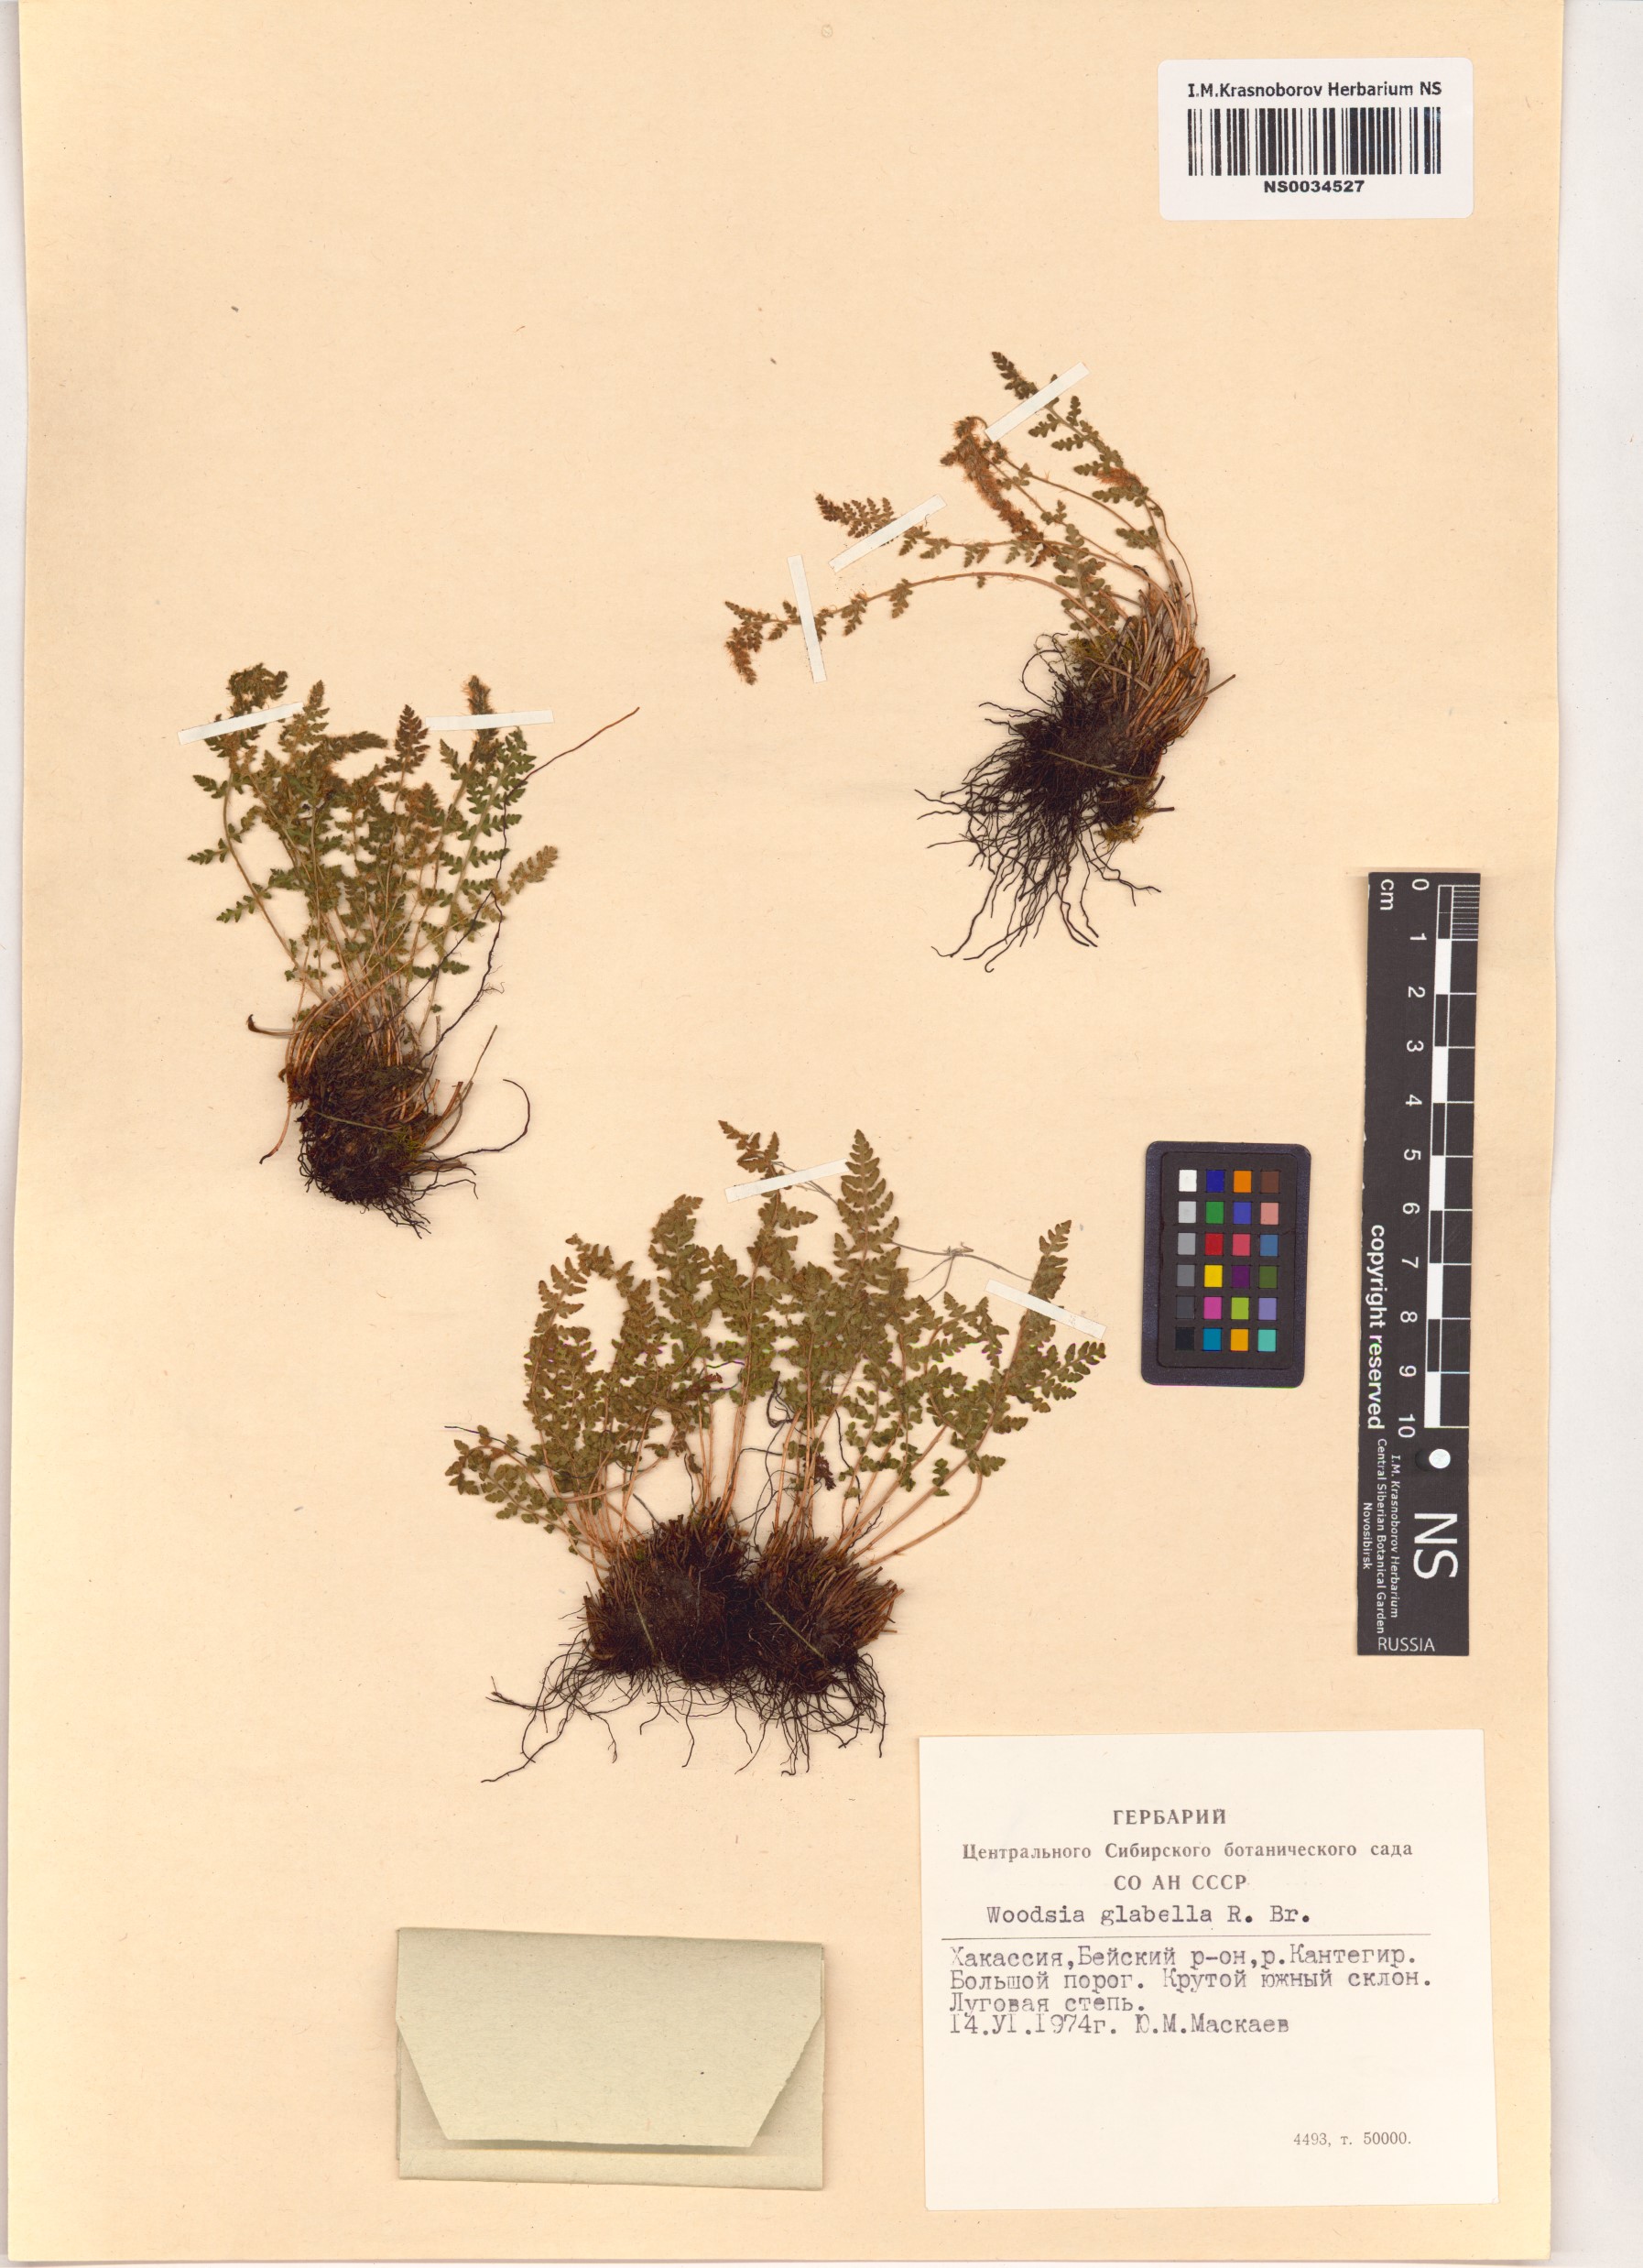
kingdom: Plantae
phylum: Tracheophyta
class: Polypodiopsida
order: Polypodiales
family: Woodsiaceae
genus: Woodsia
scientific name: Woodsia glabella
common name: Smooth woodsia
